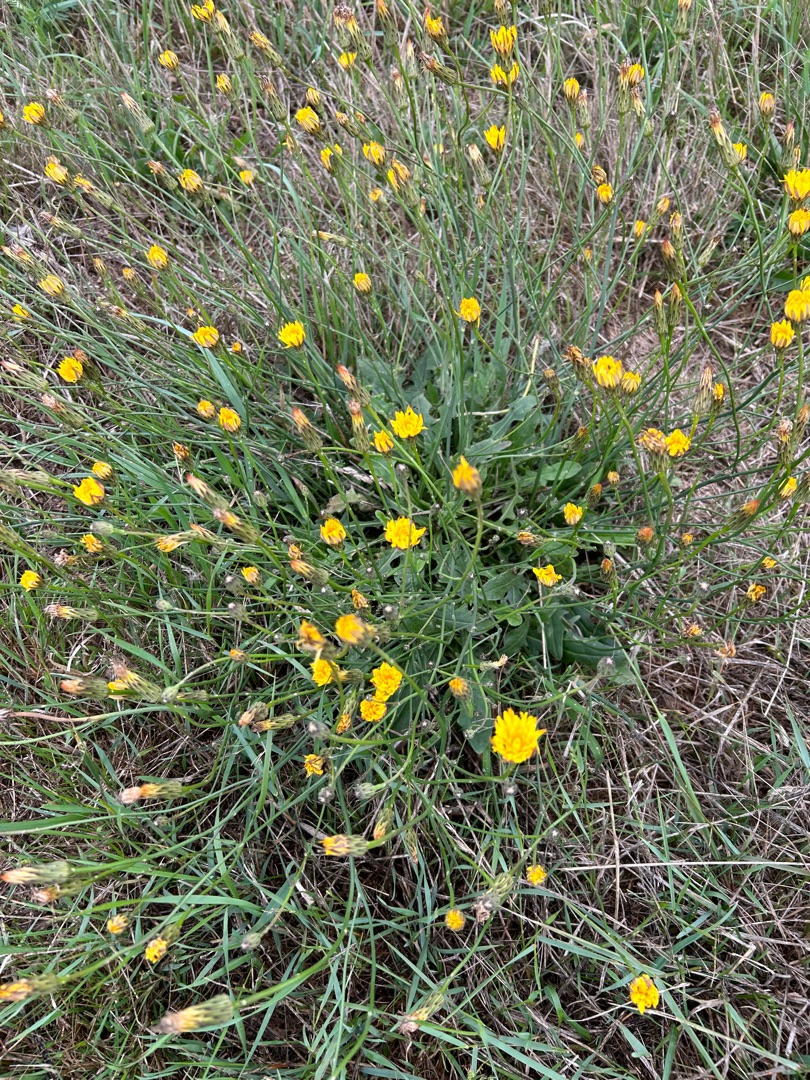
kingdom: Plantae
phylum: Tracheophyta
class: Magnoliopsida
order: Asterales
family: Asteraceae
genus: Hypochaeris
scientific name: Hypochaeris radicata
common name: Almindelig kongepen
